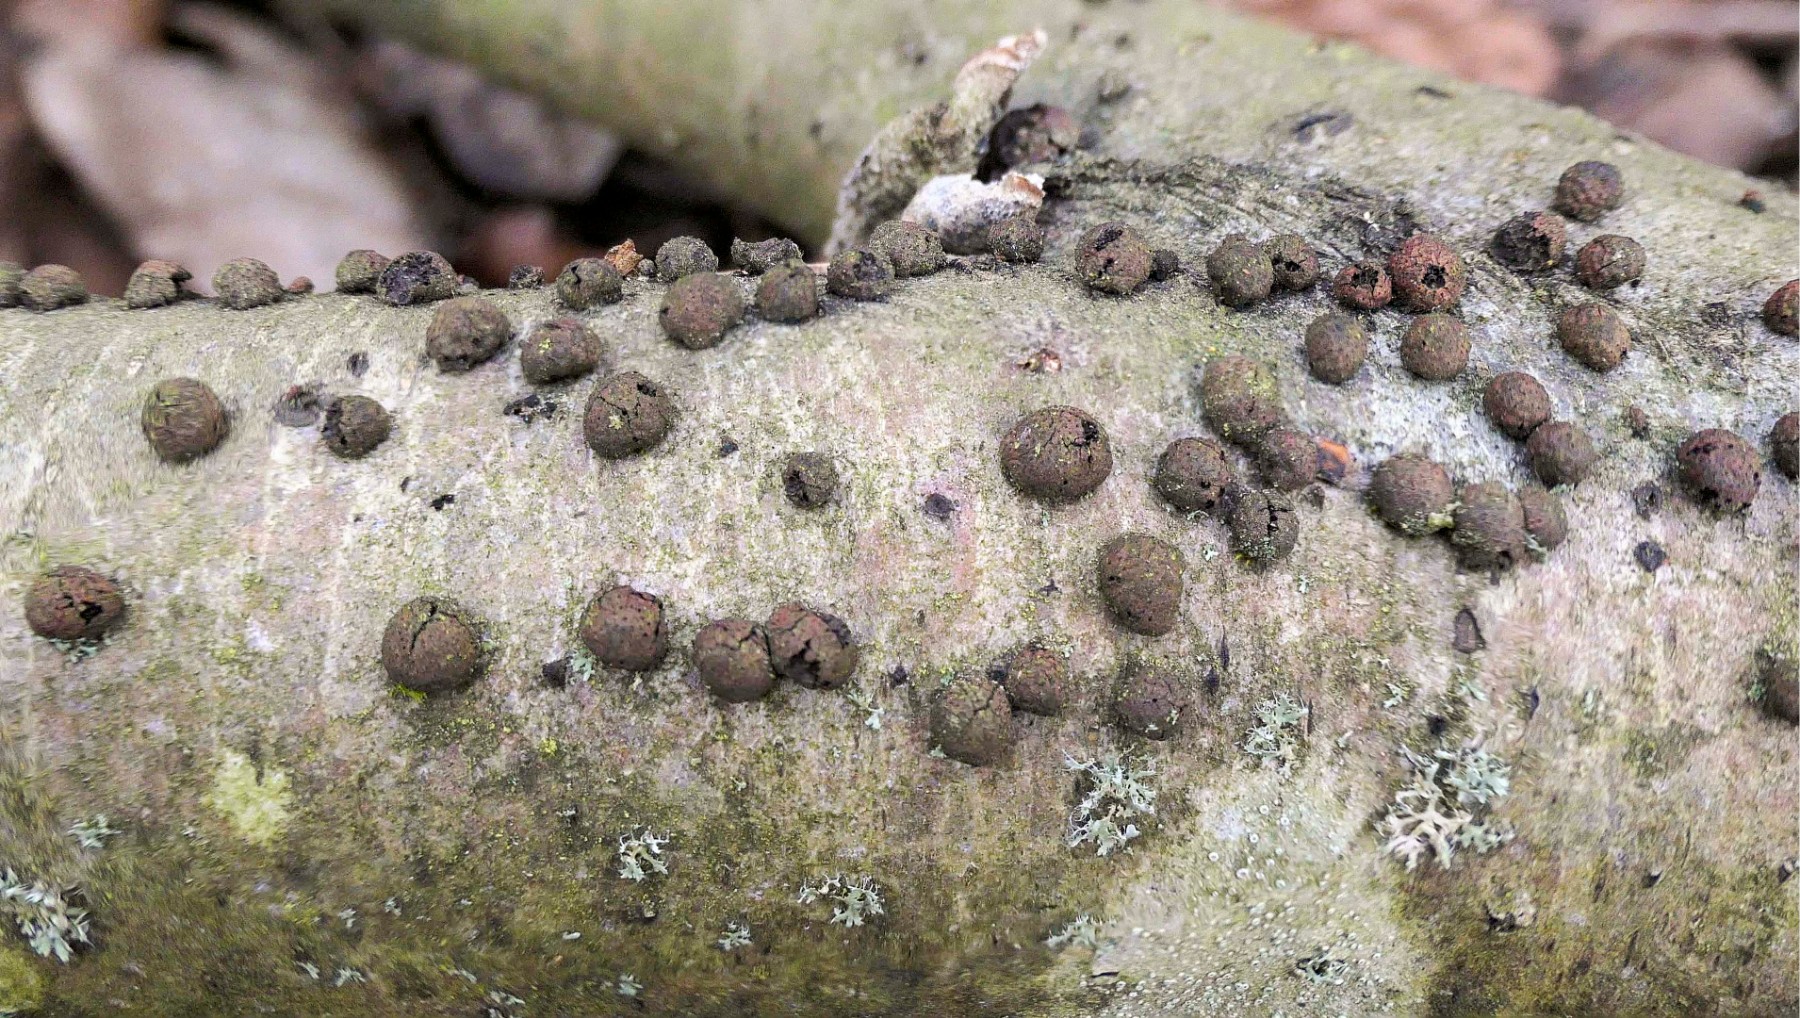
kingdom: Fungi
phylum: Ascomycota
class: Sordariomycetes
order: Xylariales
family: Hypoxylaceae
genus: Hypoxylon
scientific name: Hypoxylon howeanum
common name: halvkugleformet kulbær
